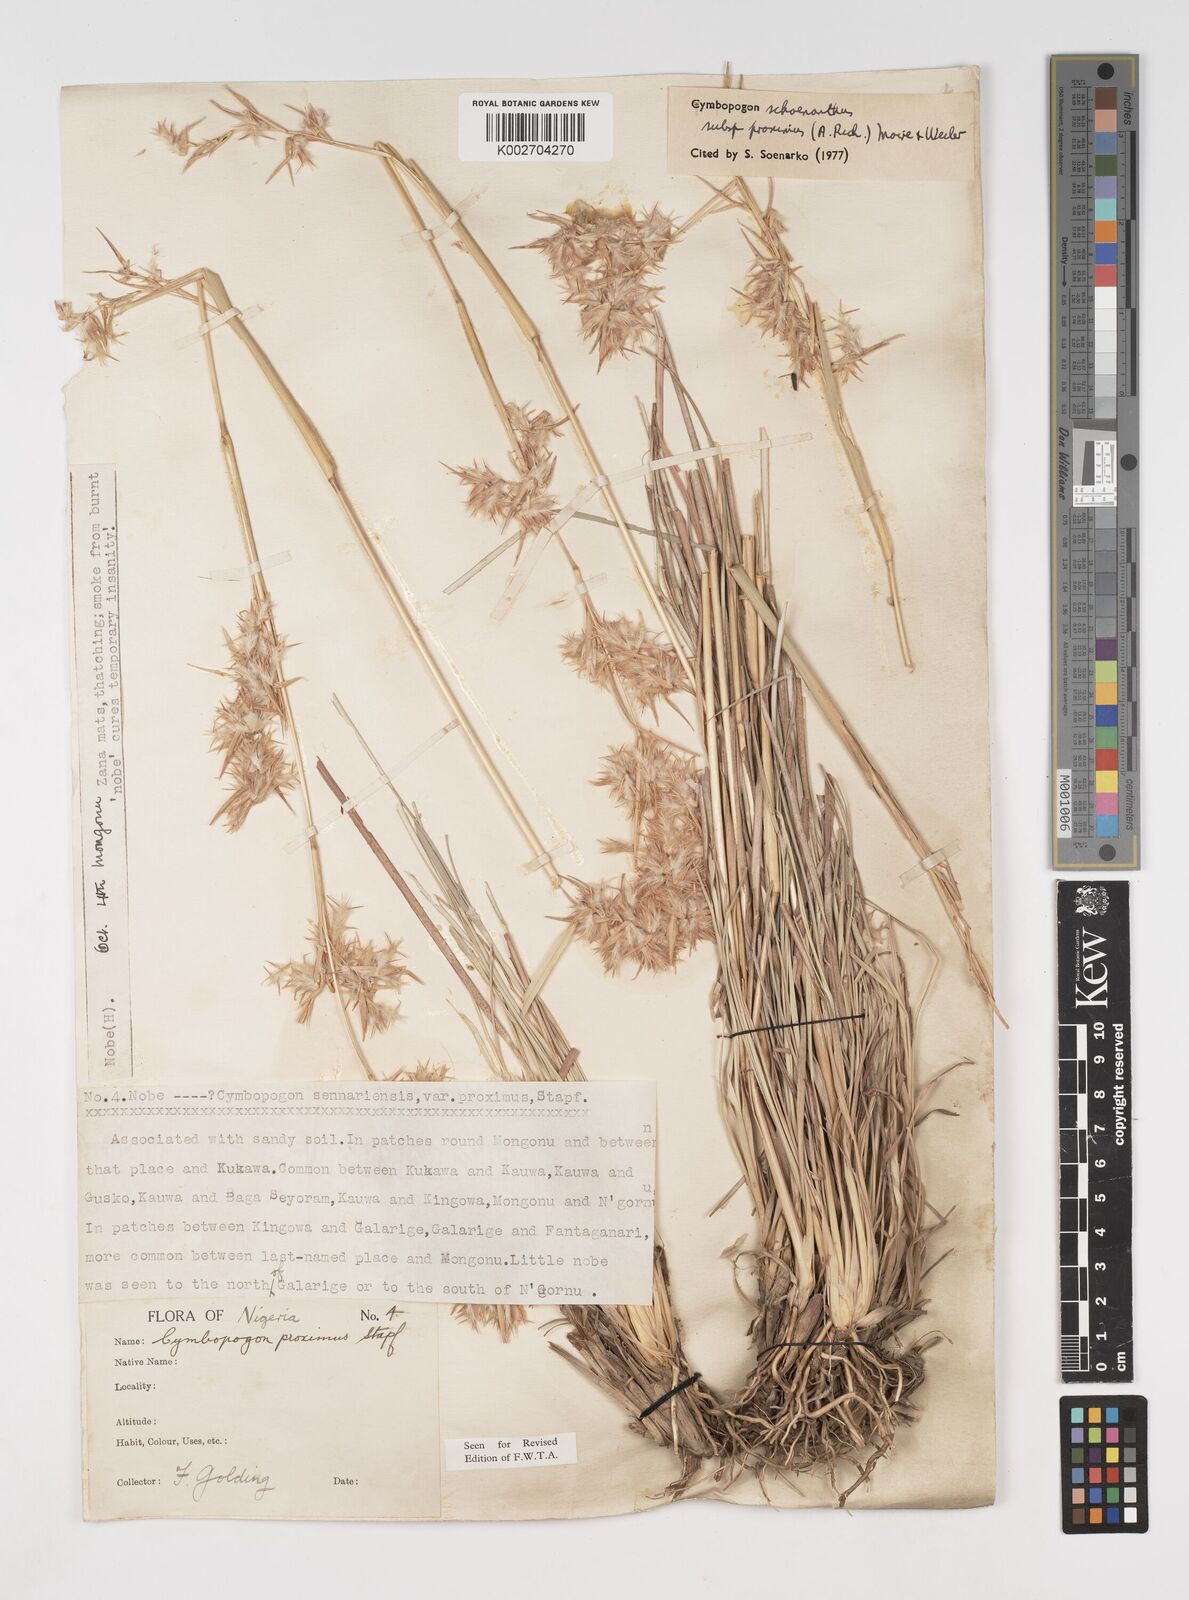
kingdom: Plantae
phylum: Tracheophyta
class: Liliopsida
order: Poales
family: Poaceae
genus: Cymbopogon
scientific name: Cymbopogon schoenanthus
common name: Geranium grass
